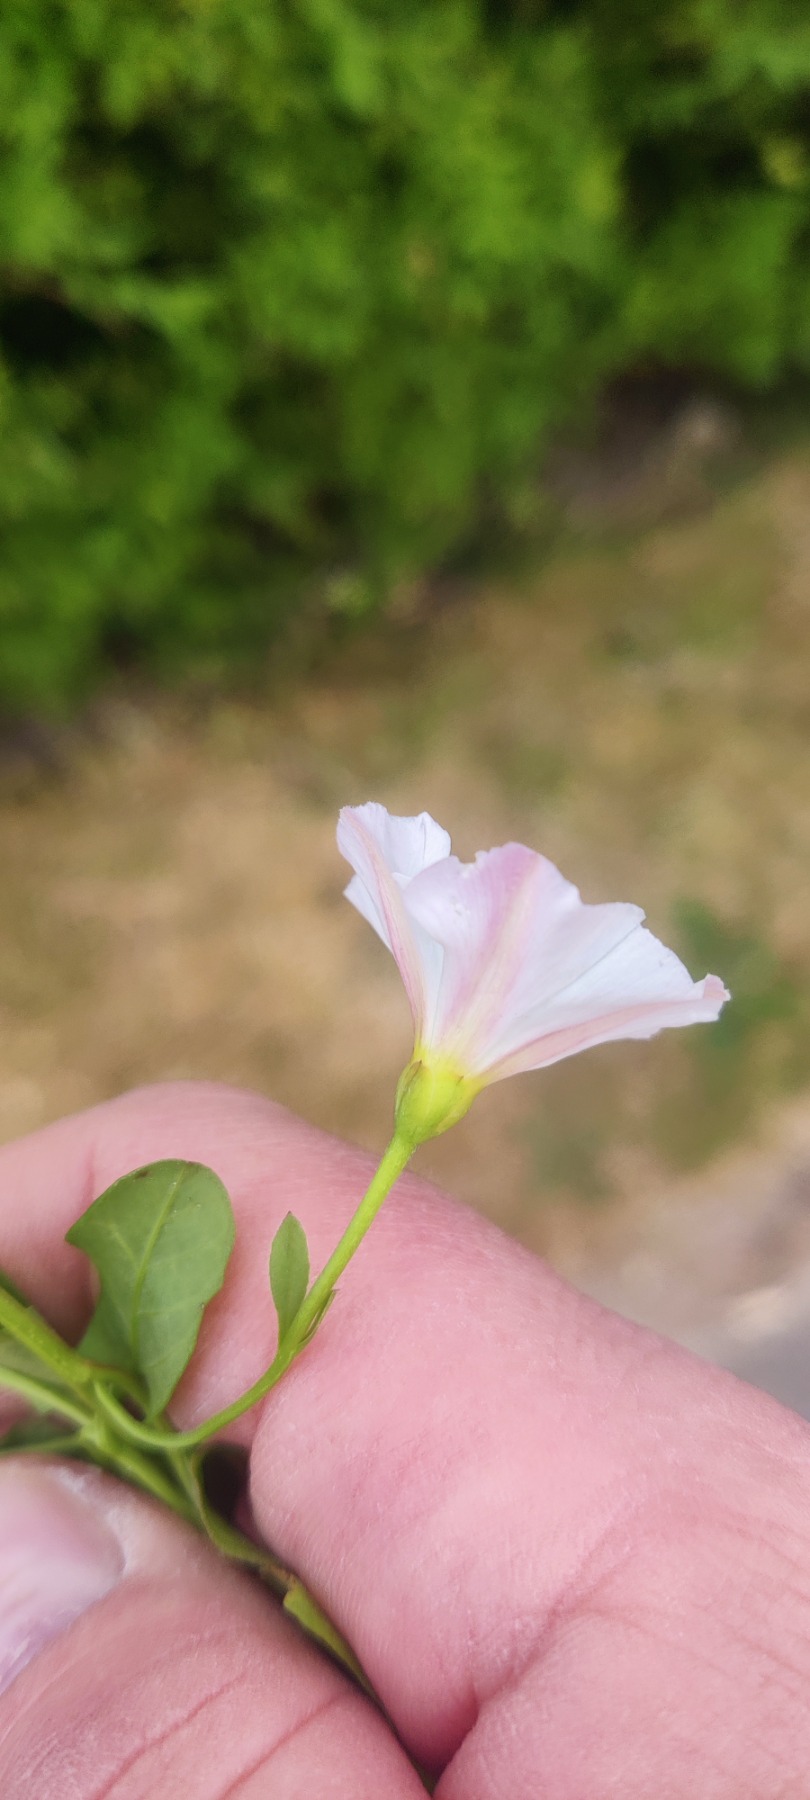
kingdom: Plantae
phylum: Tracheophyta
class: Magnoliopsida
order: Solanales
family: Convolvulaceae
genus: Convolvulus
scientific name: Convolvulus arvensis
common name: Ager-snerle
